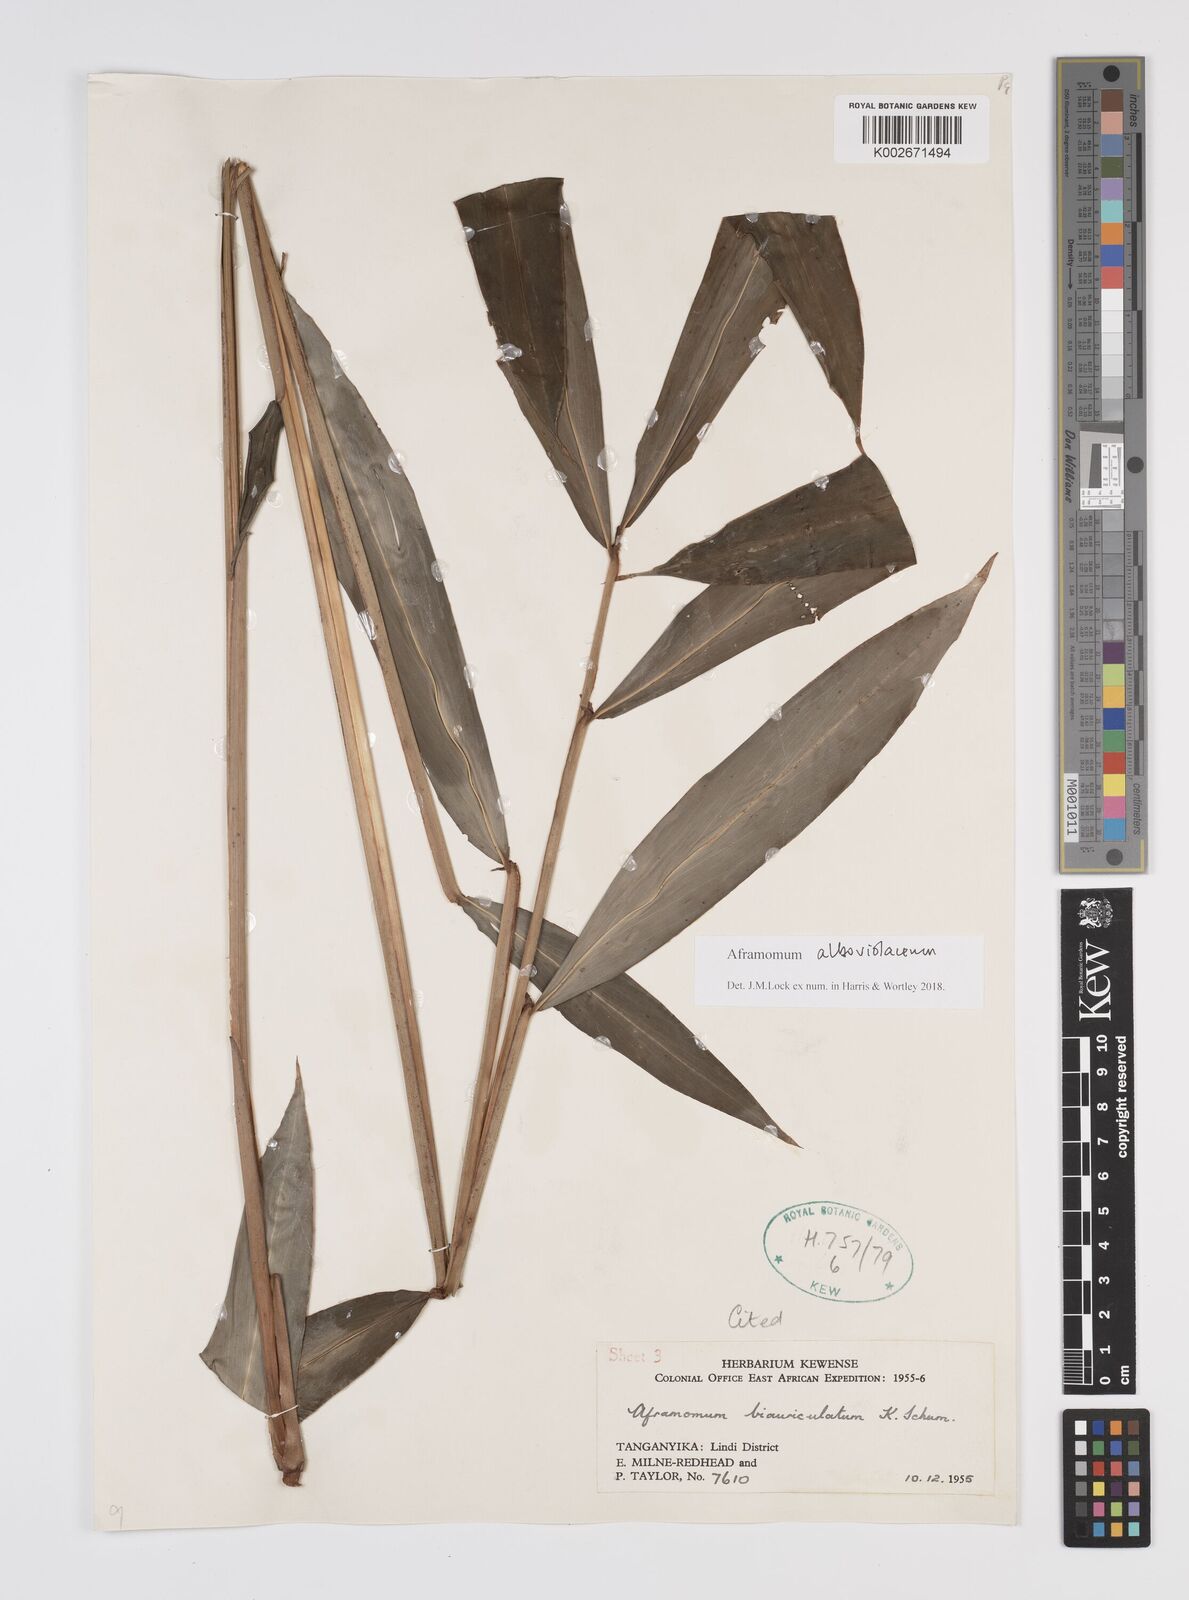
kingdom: Plantae
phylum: Tracheophyta
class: Liliopsida
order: Zingiberales
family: Zingiberaceae
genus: Aframomum
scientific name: Aframomum alboviolaceum
